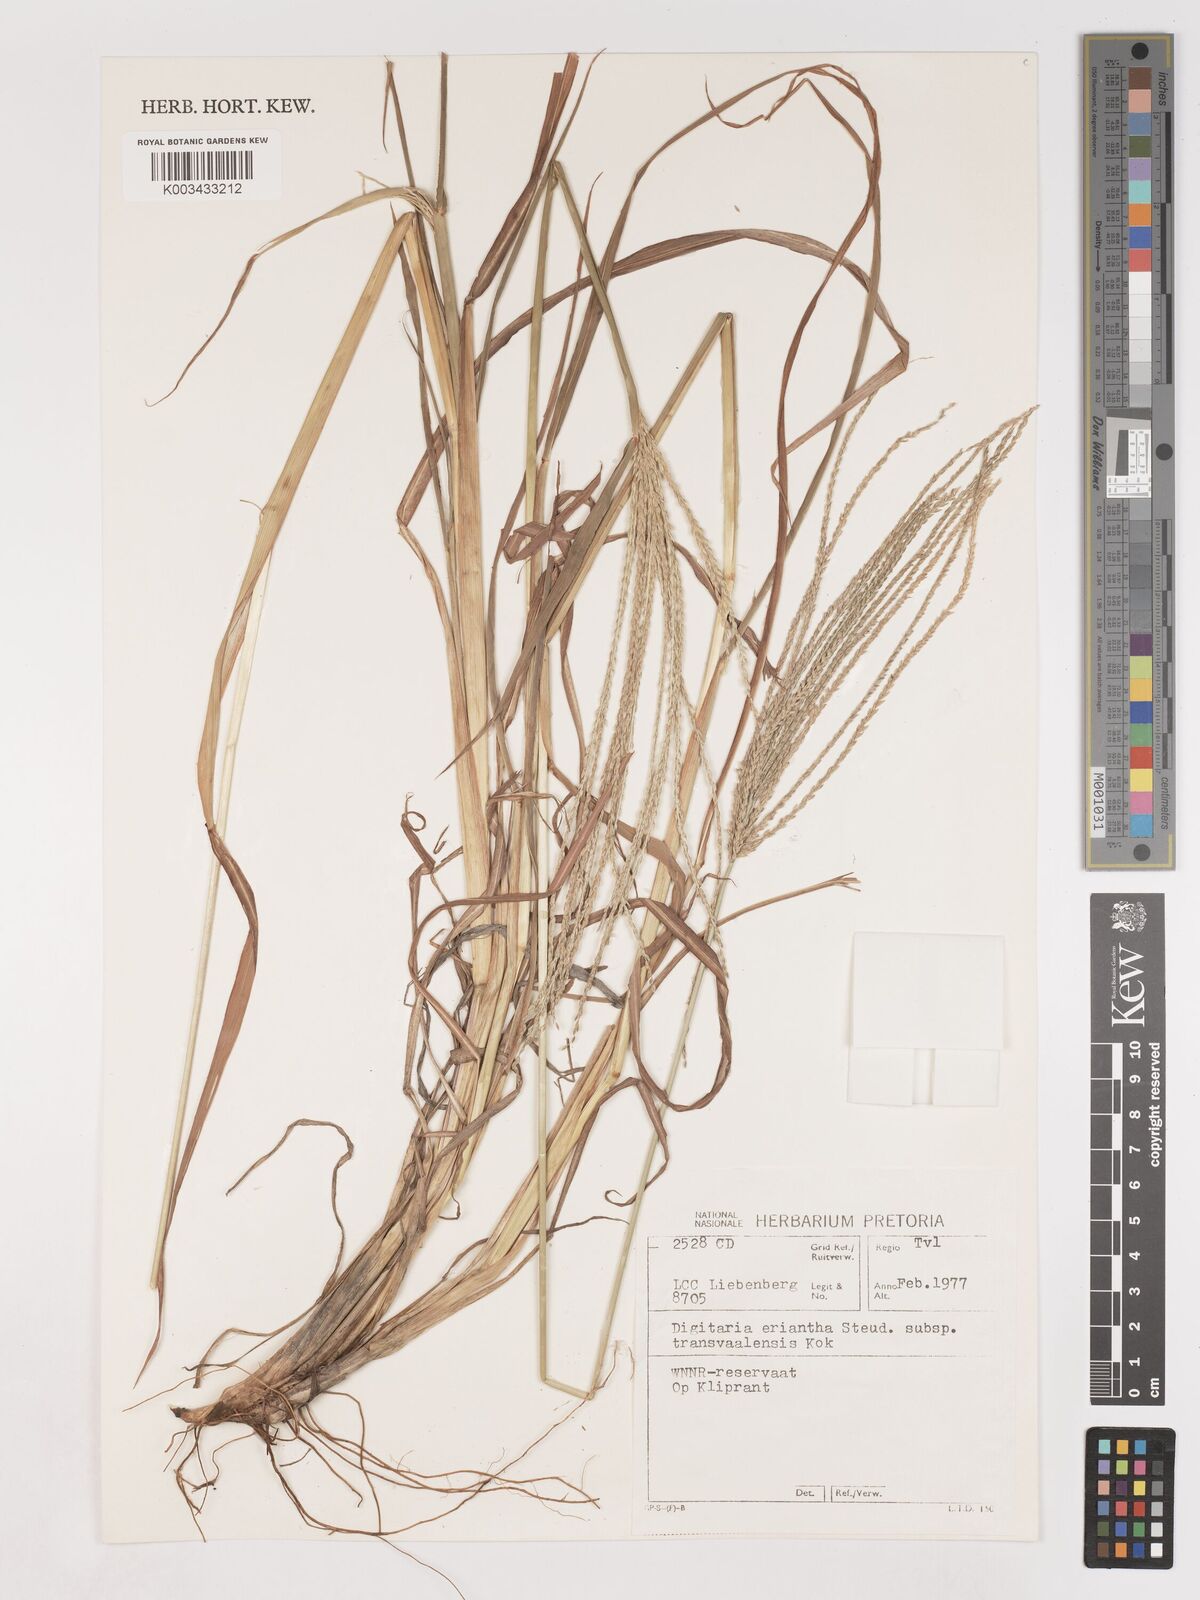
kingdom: Plantae
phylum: Tracheophyta
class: Liliopsida
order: Poales
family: Poaceae
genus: Digitaria
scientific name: Digitaria eriantha
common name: Digitgrass
